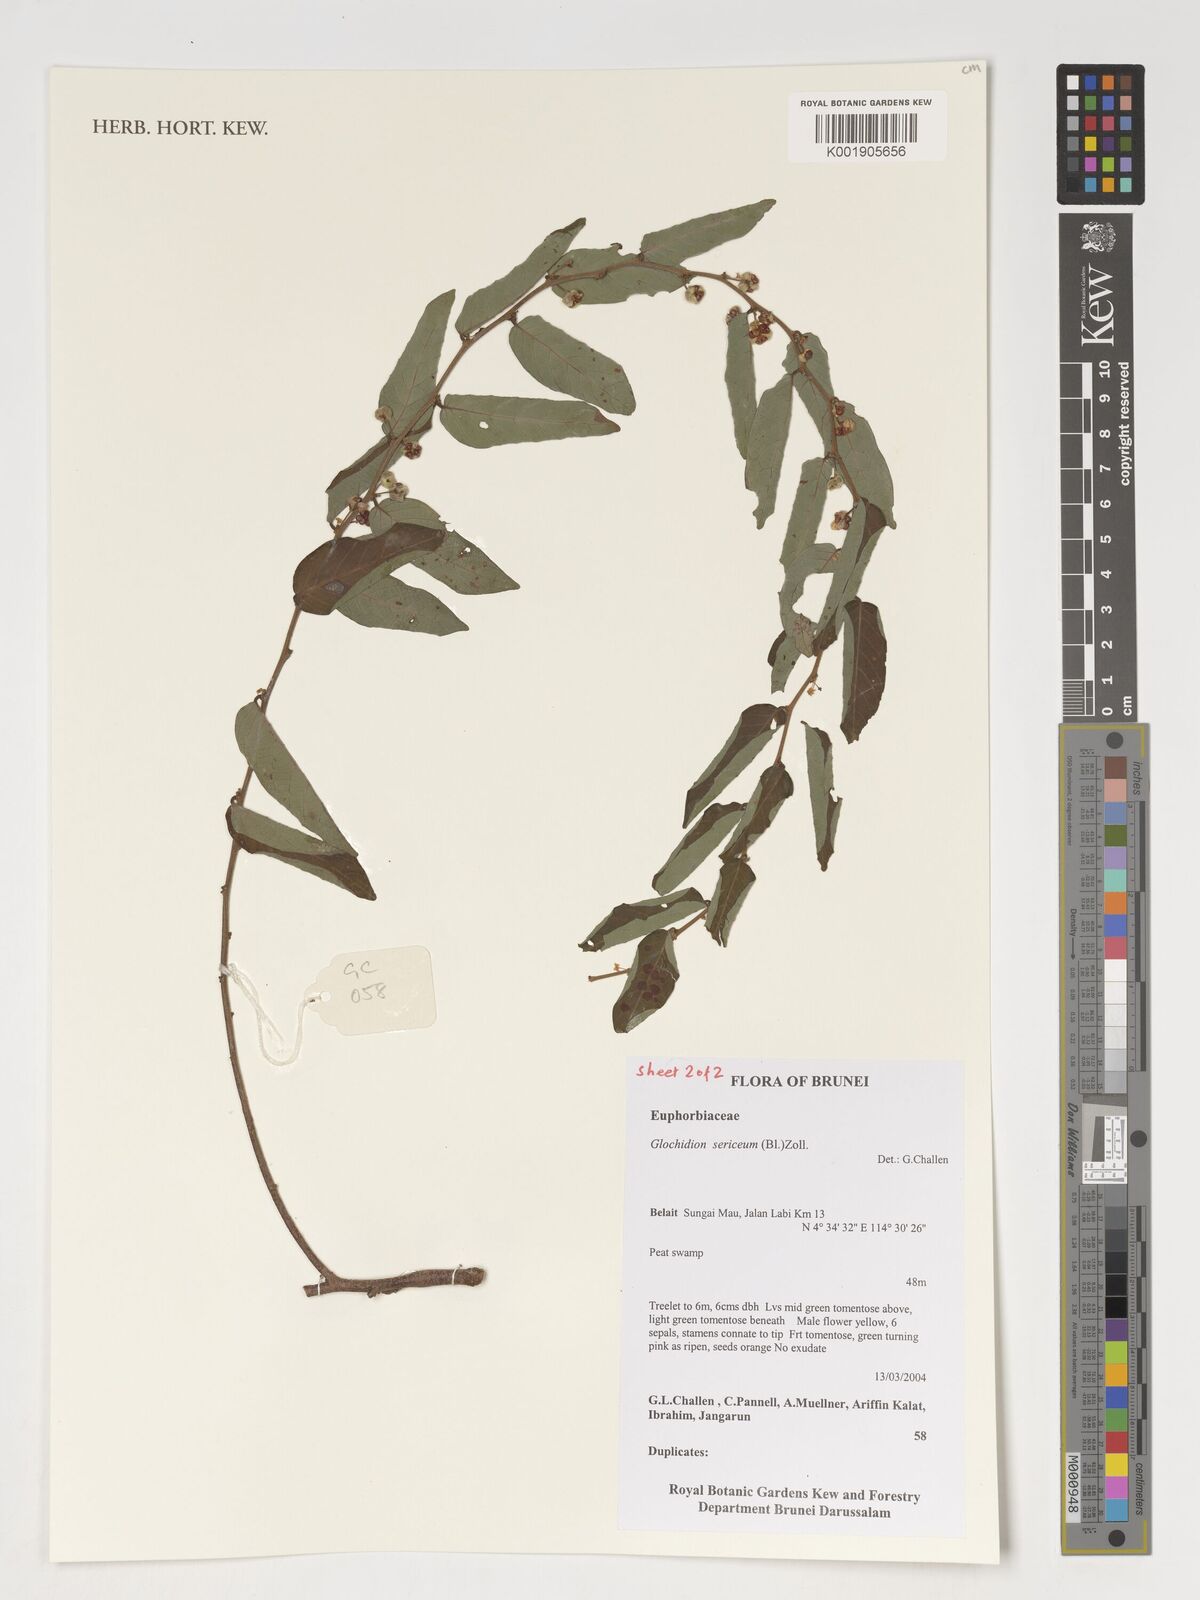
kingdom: Plantae
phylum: Tracheophyta
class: Magnoliopsida
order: Malpighiales
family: Phyllanthaceae
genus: Glochidion
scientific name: Glochidion sericeum
